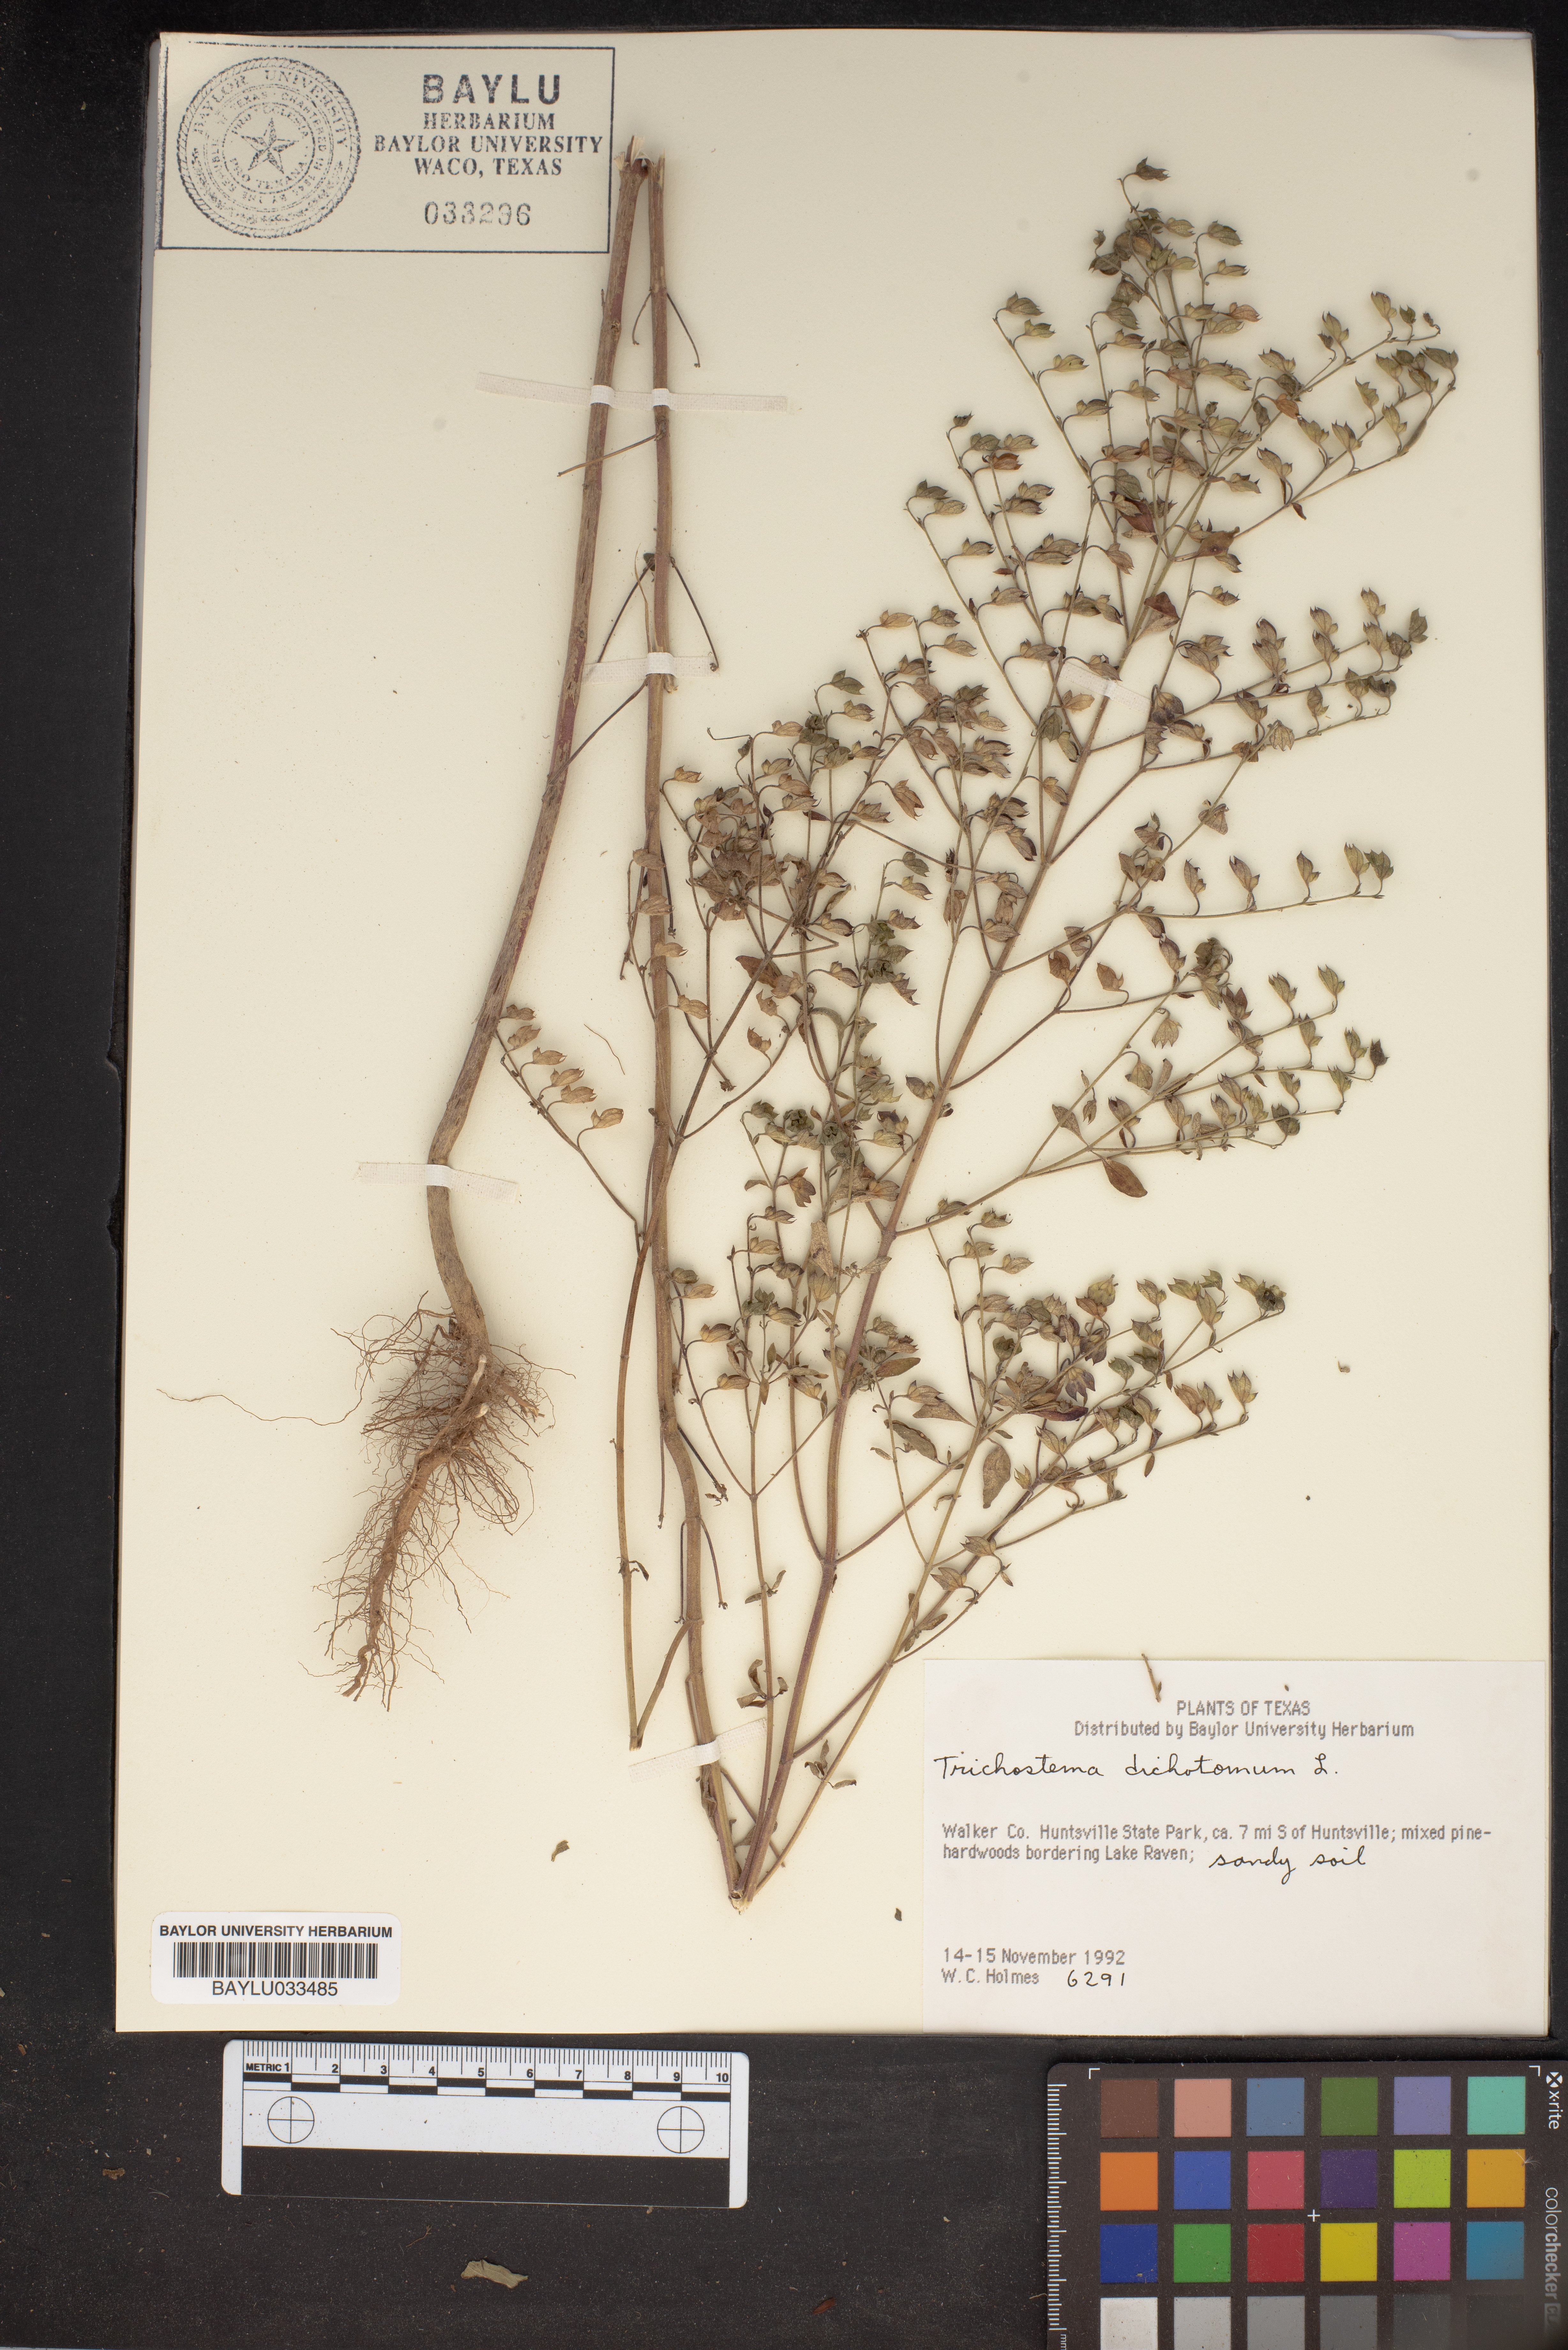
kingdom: Plantae
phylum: Tracheophyta
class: Magnoliopsida
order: Lamiales
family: Lamiaceae
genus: Trichostema
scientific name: Trichostema dichotomum
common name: Bastard pennyroyal
